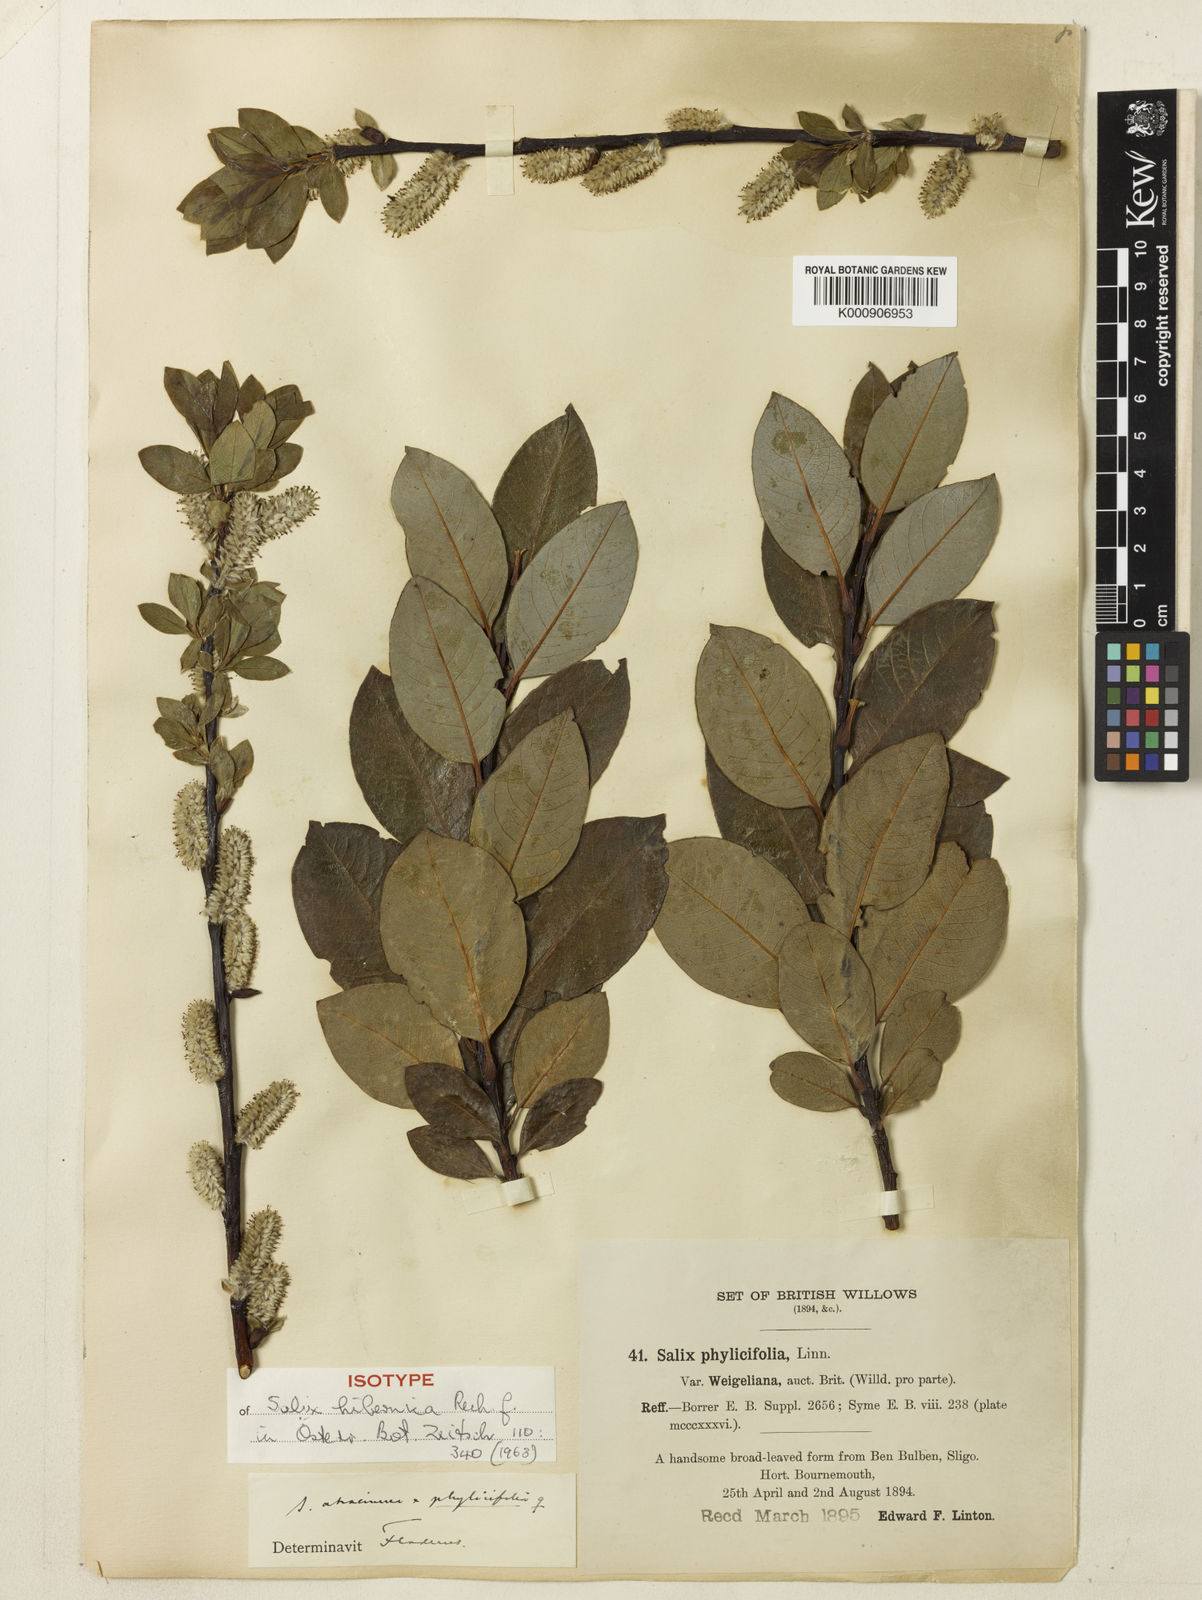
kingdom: Plantae
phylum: Tracheophyta
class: Magnoliopsida
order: Malpighiales
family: Salicaceae
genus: Salix
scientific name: Salix phylicifolia
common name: Tea-leaved willow
